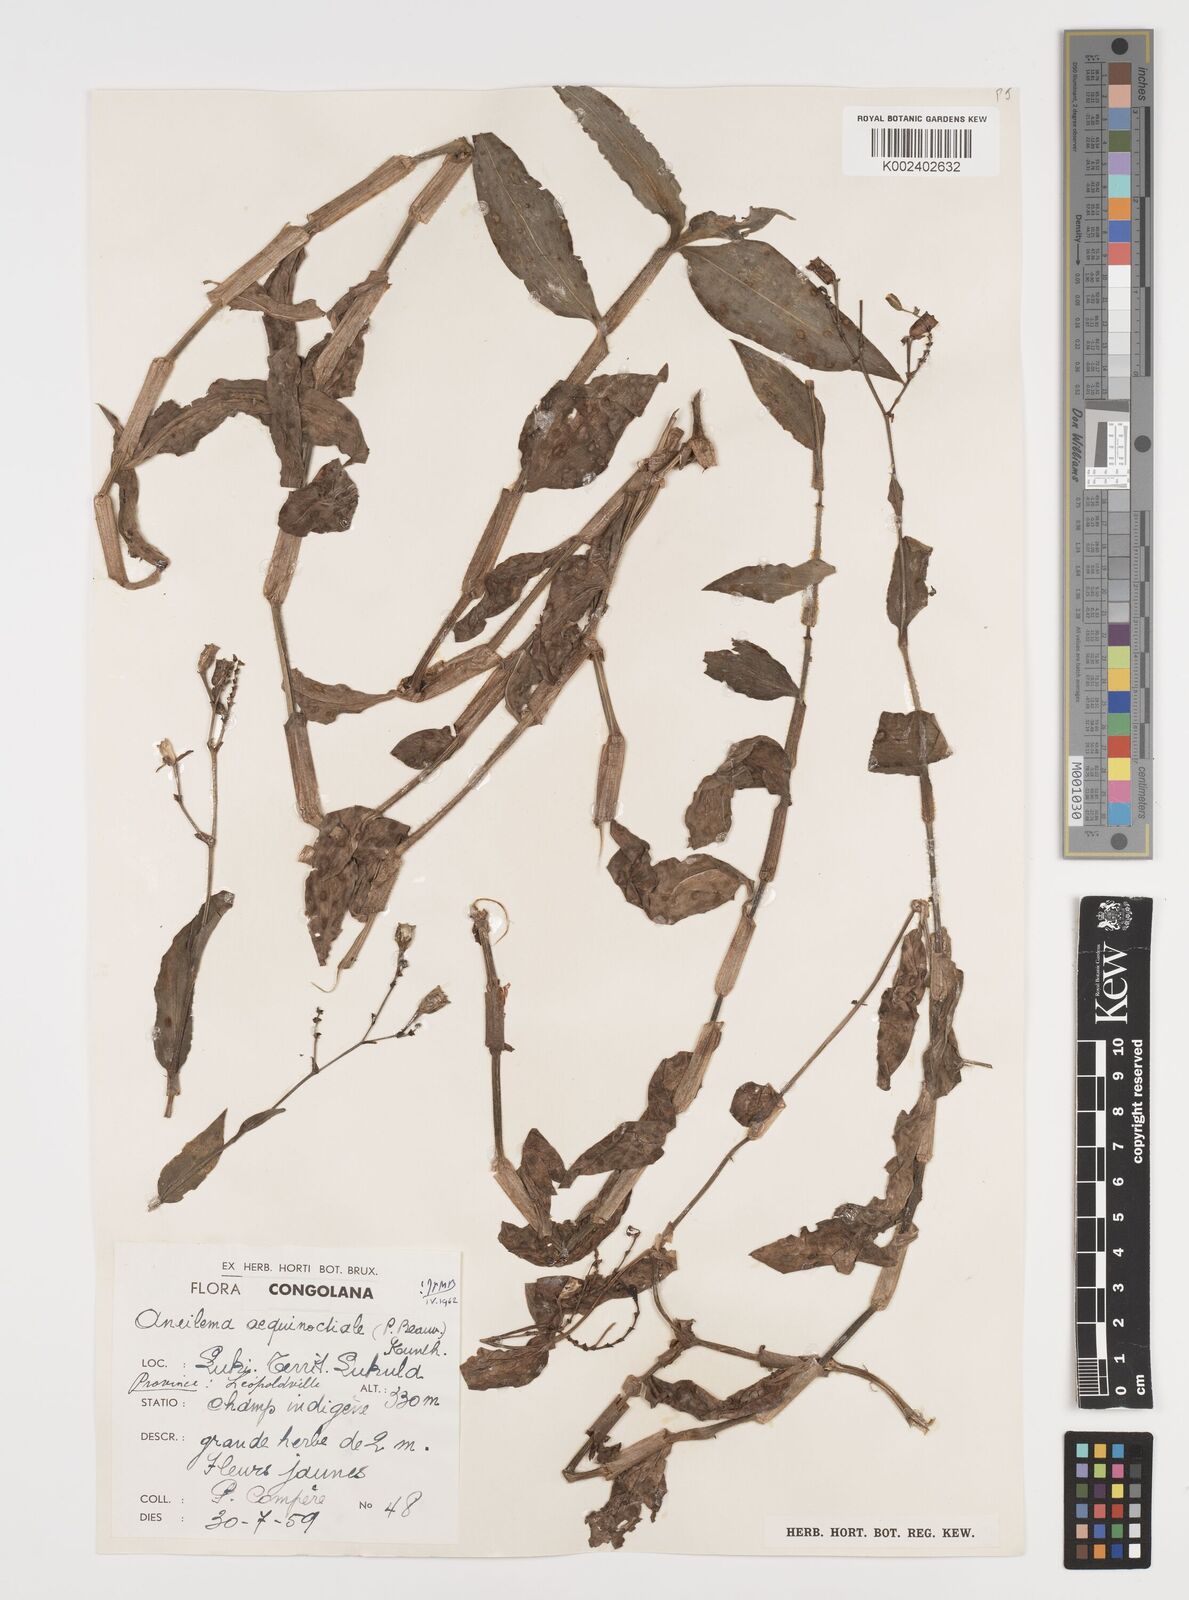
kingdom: Plantae
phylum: Tracheophyta
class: Liliopsida
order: Commelinales
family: Commelinaceae
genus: Aneilema
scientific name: Aneilema aequinoctiale
